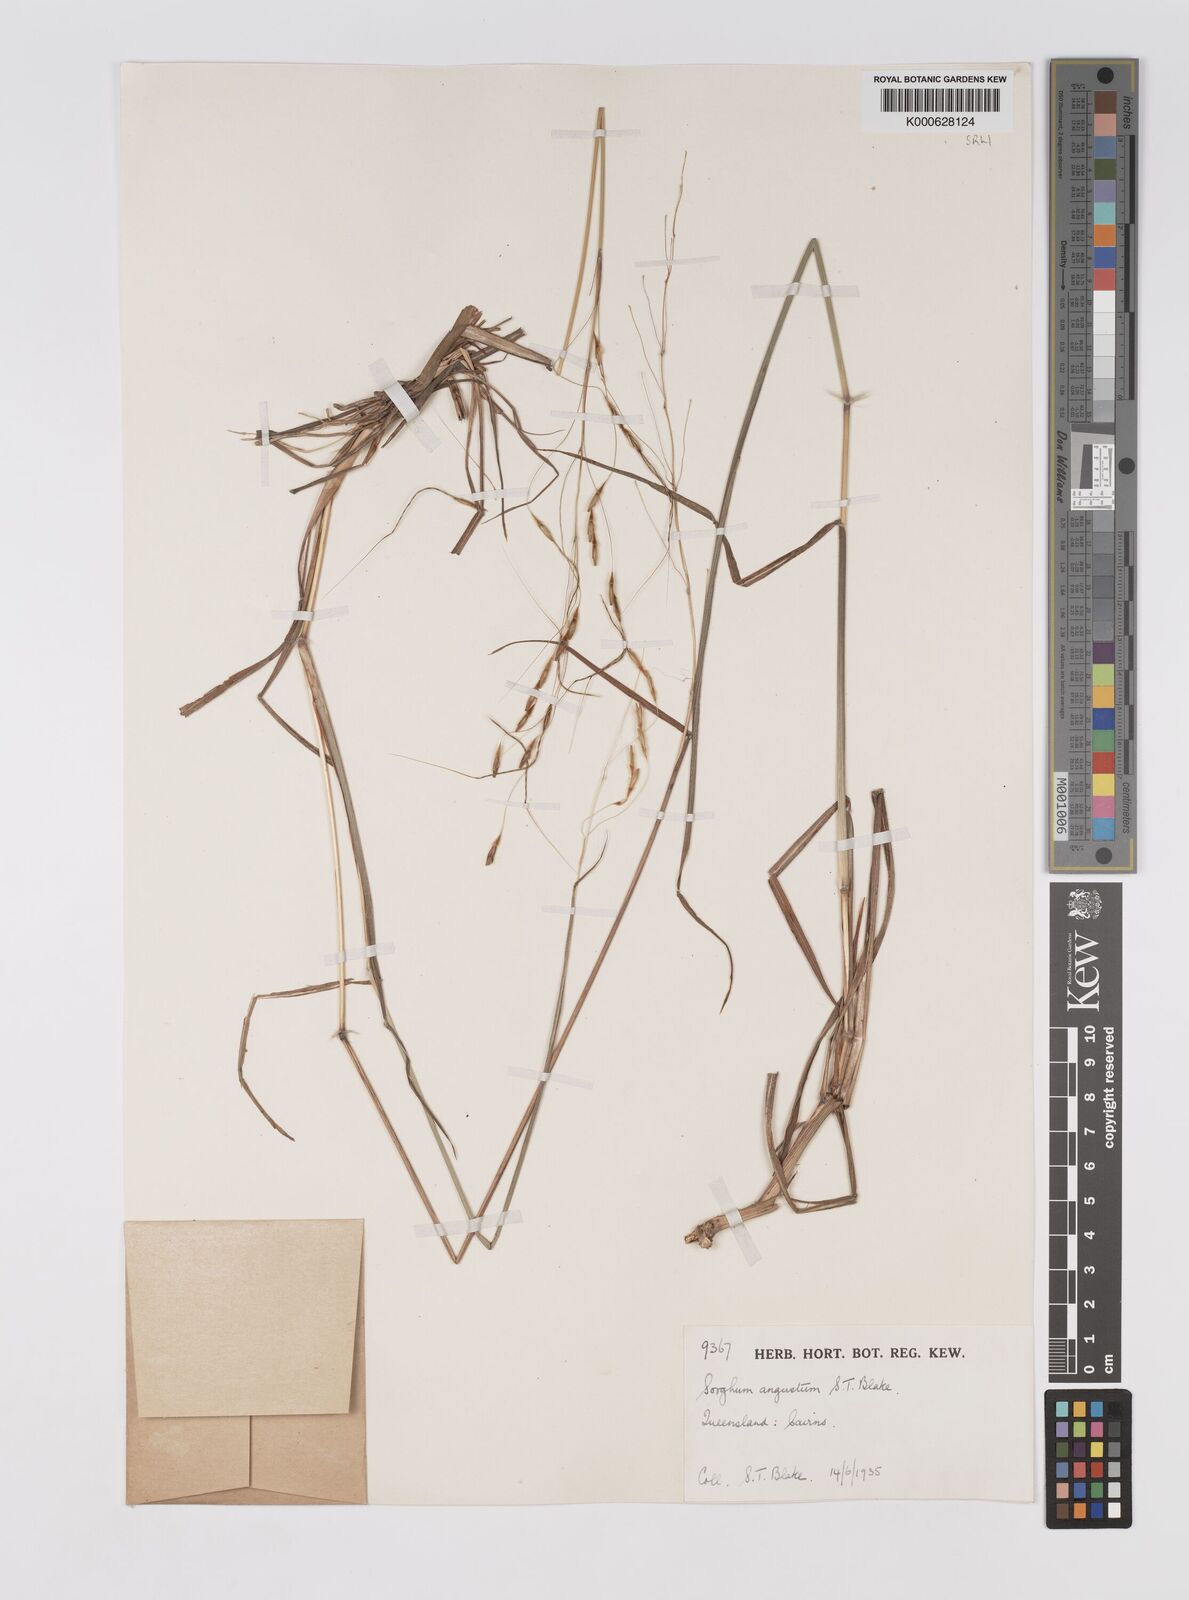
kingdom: Plantae
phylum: Tracheophyta
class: Liliopsida
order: Poales
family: Poaceae
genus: Sarga
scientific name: Sarga angusta
